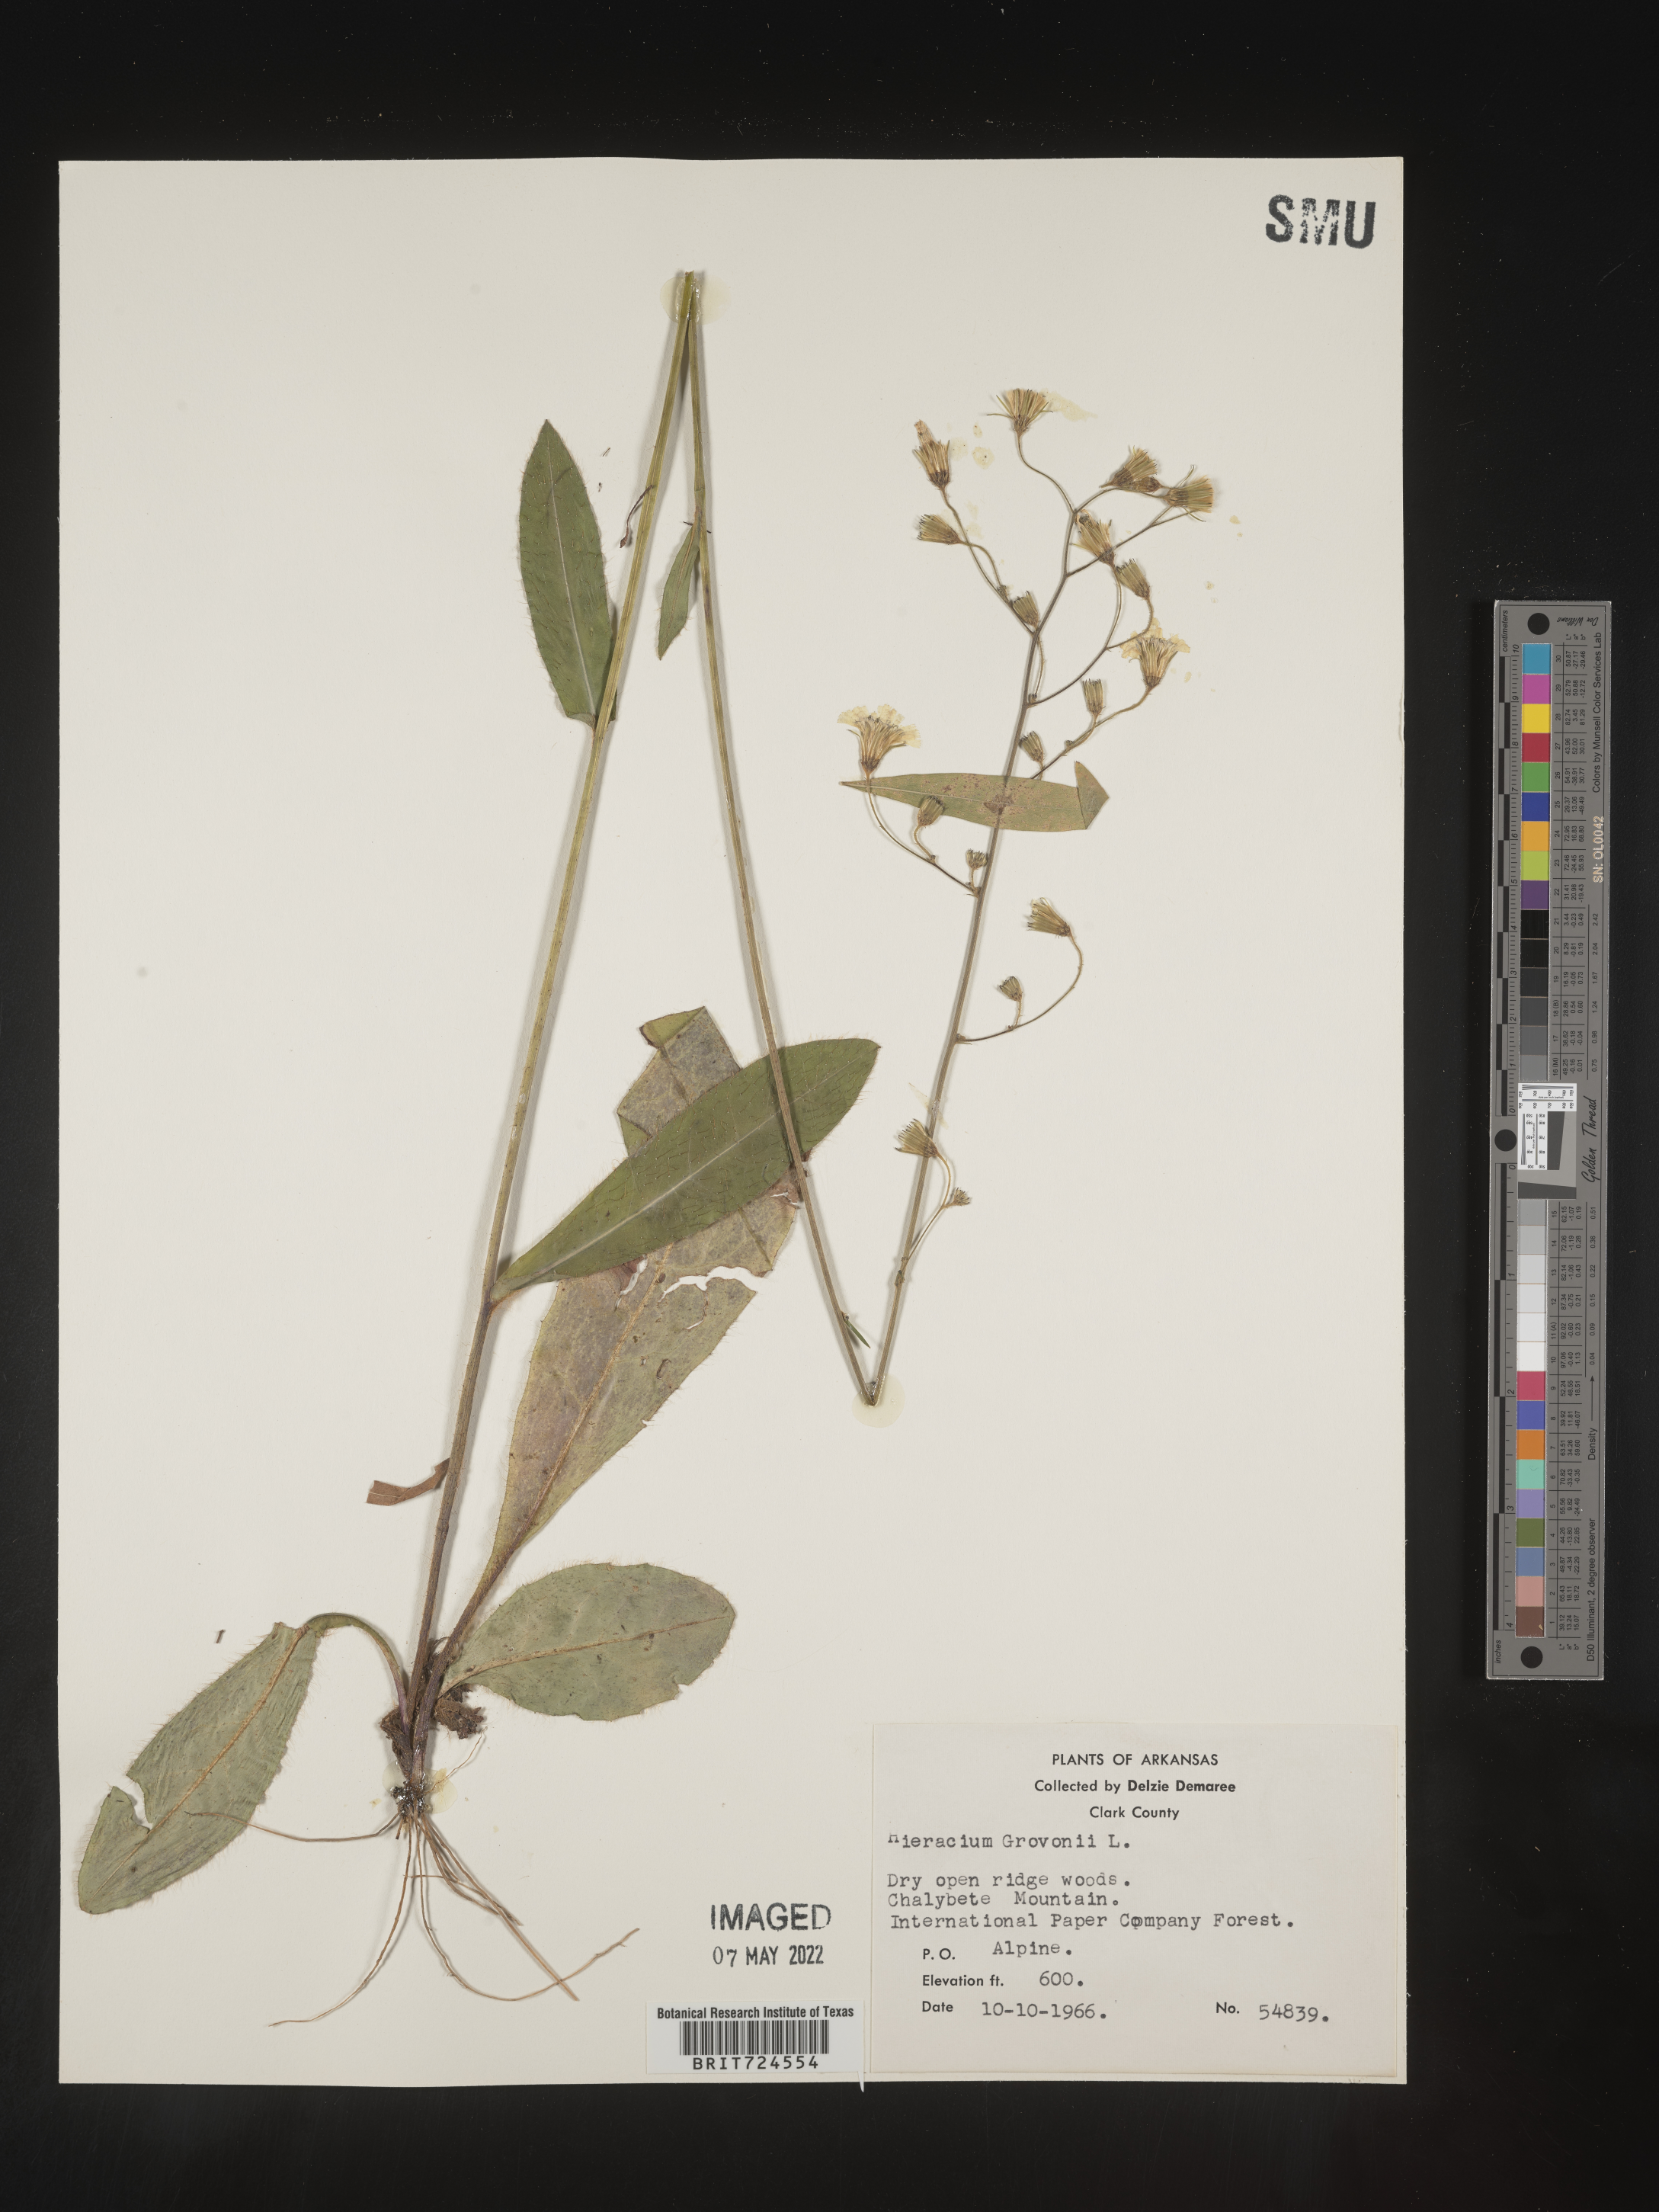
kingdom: Plantae
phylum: Tracheophyta
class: Magnoliopsida
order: Asterales
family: Asteraceae
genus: Hieracium
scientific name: Hieracium gronovii
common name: Beaked hawkweed
